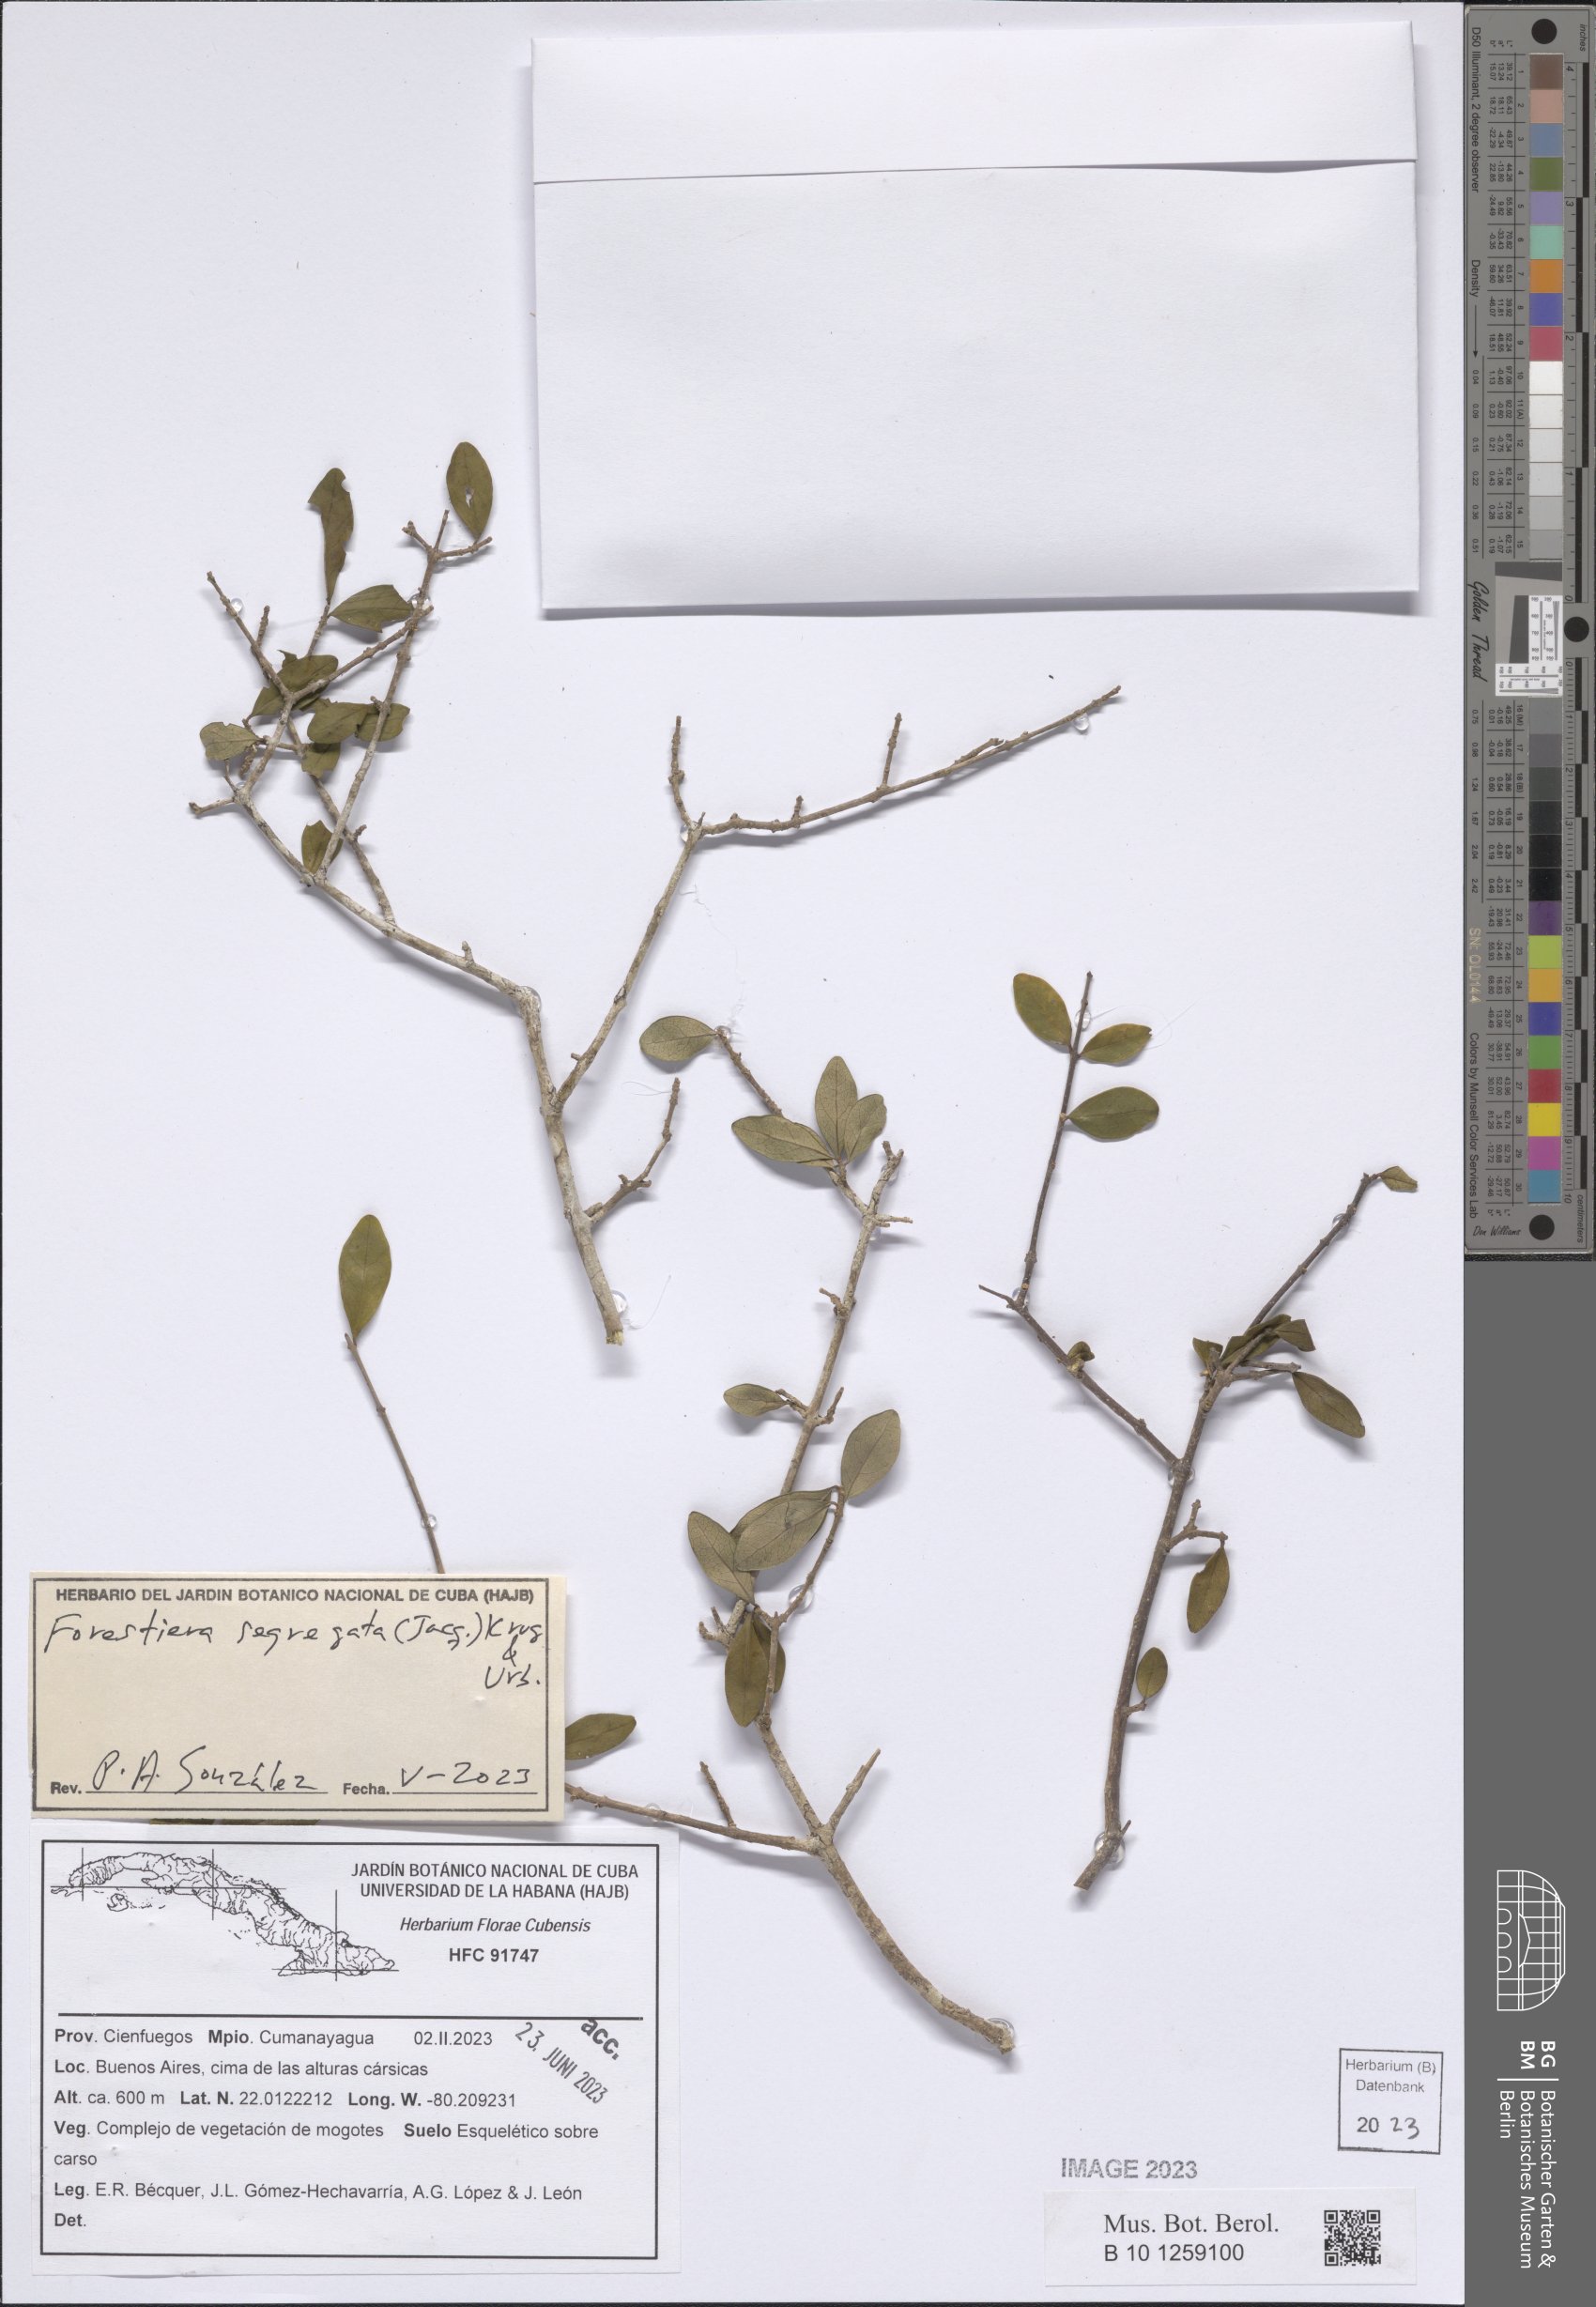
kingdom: Plantae
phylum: Tracheophyta
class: Magnoliopsida
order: Lamiales
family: Oleaceae
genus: Forestiera
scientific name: Forestiera segregata
